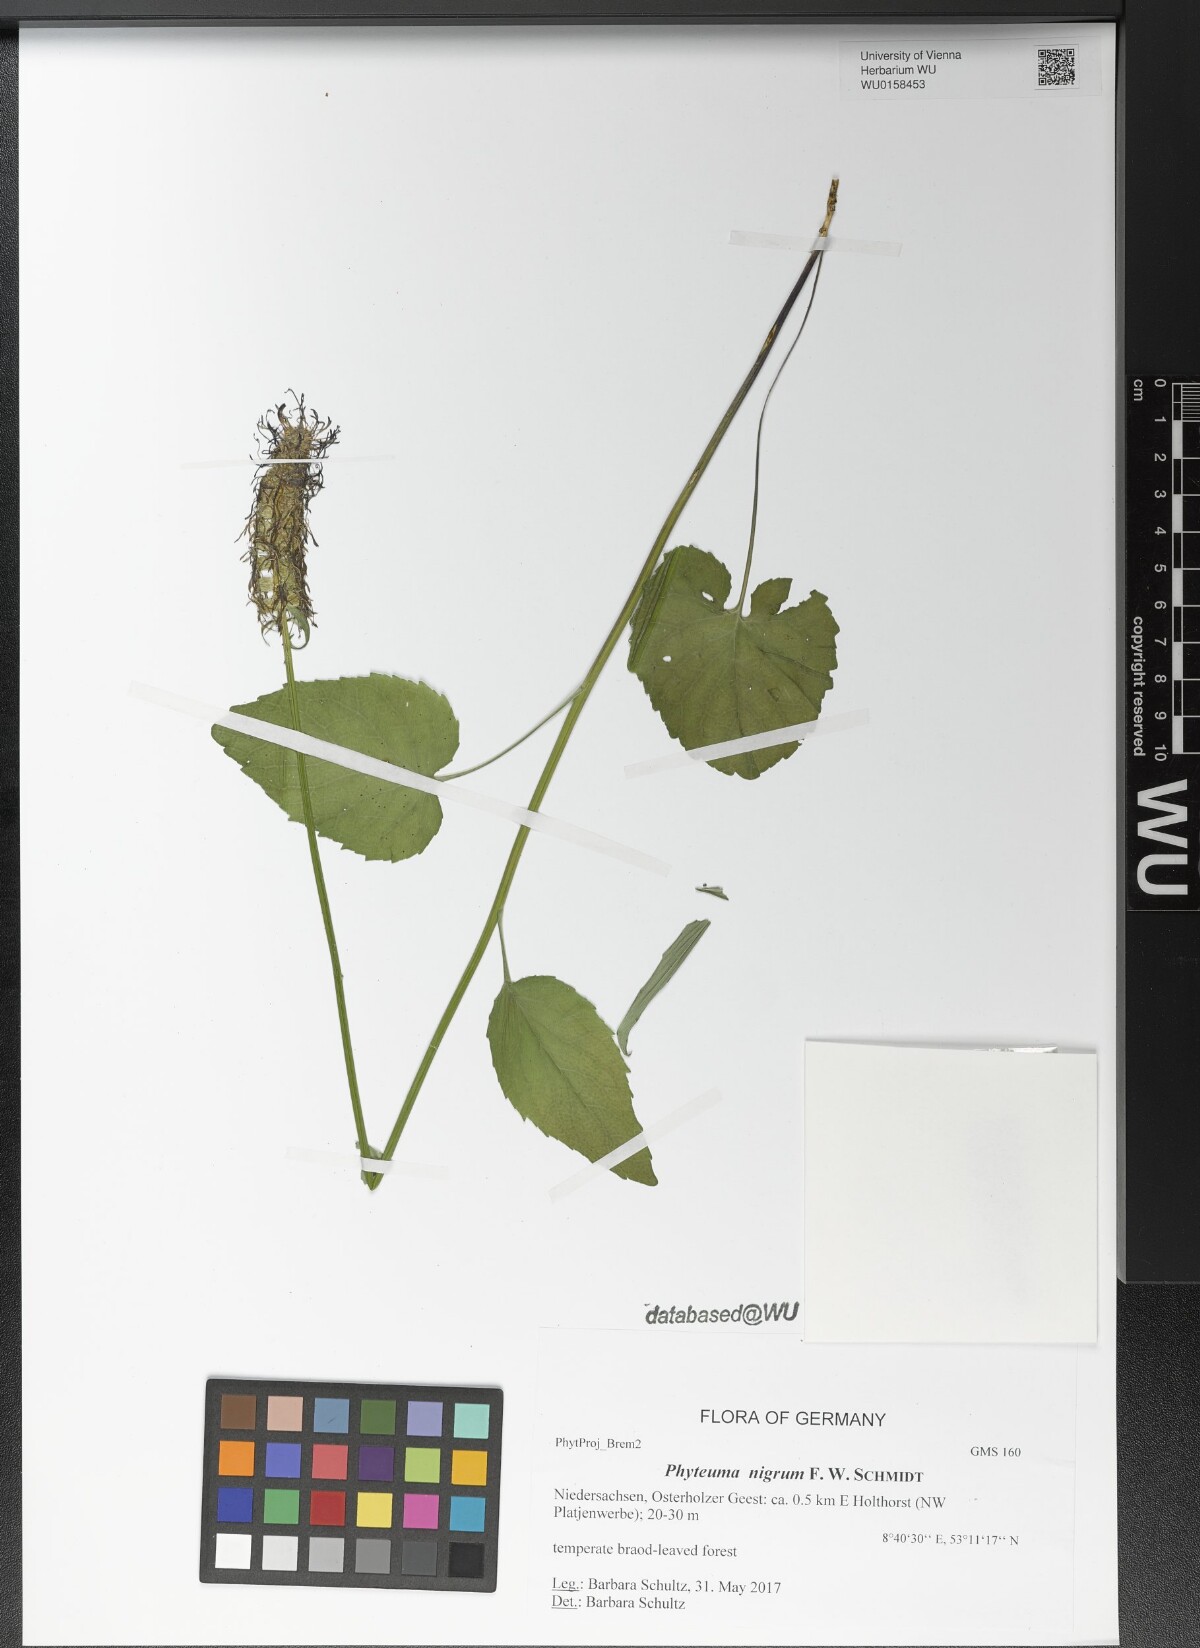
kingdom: Plantae
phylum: Tracheophyta
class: Magnoliopsida
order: Asterales
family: Campanulaceae
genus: Phyteuma
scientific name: Phyteuma nigrum
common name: Black rampion
